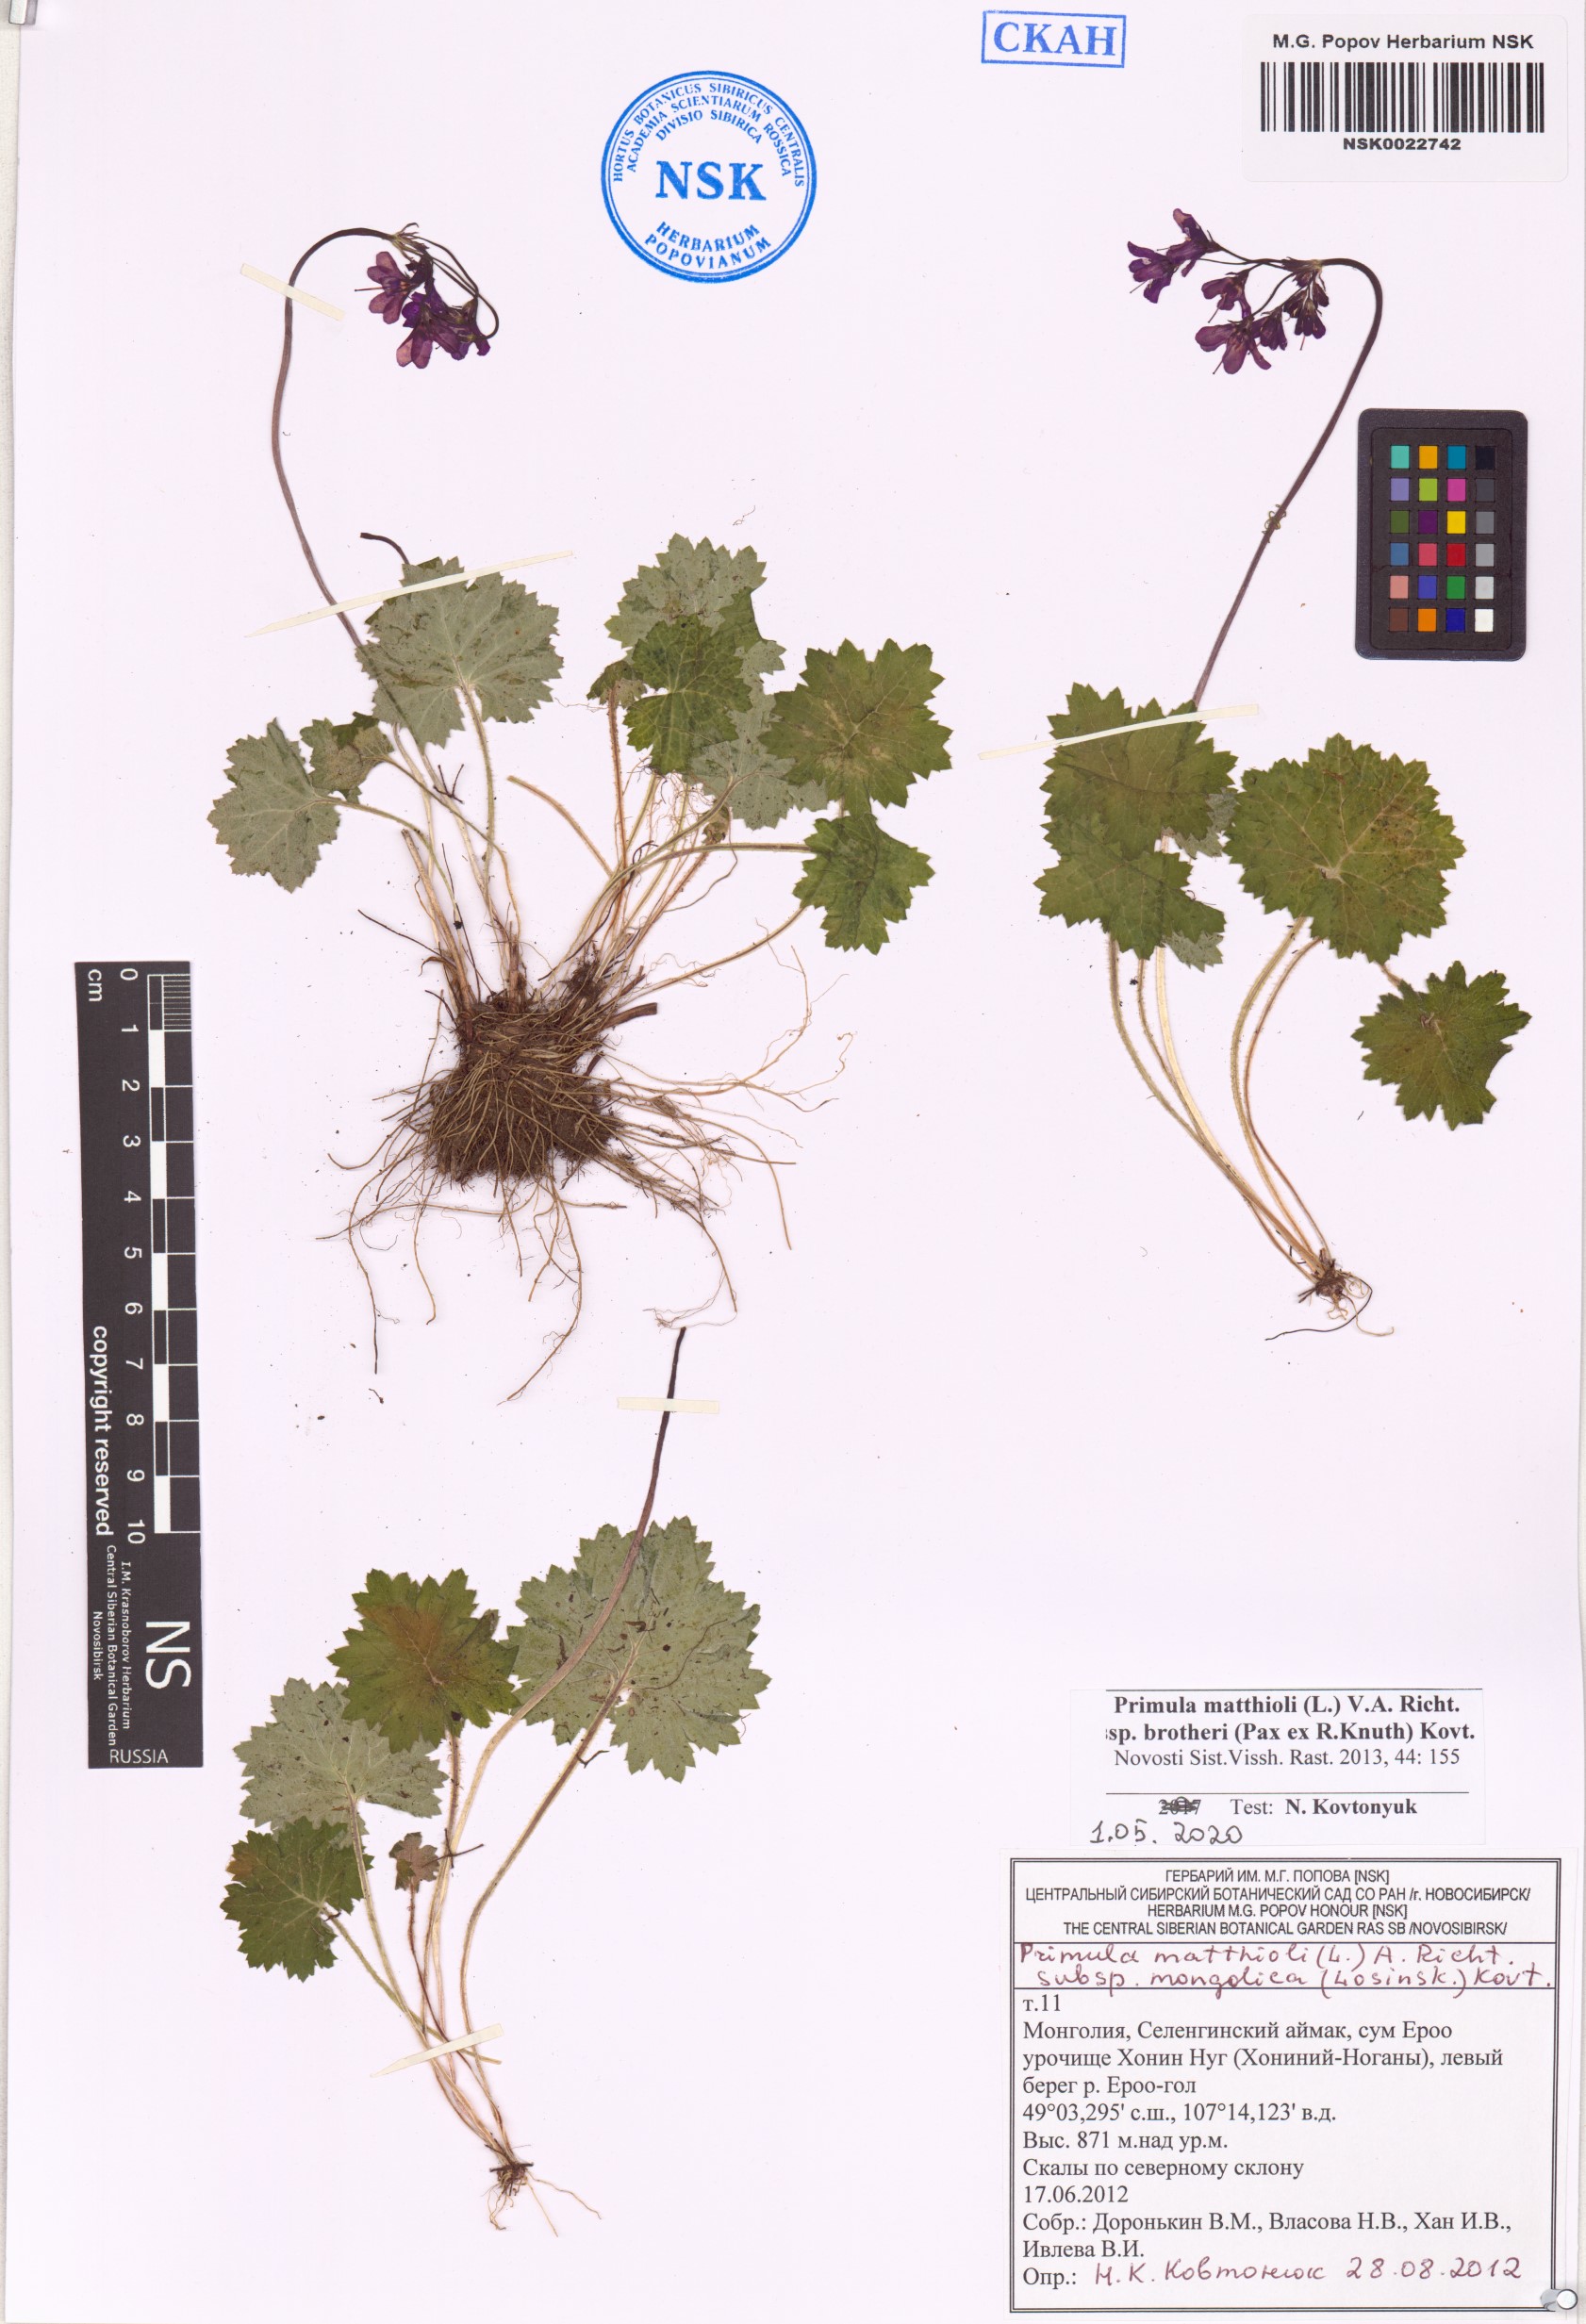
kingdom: Plantae
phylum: Tracheophyta
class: Magnoliopsida
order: Ericales
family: Primulaceae
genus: Primula
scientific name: Primula matthioli
